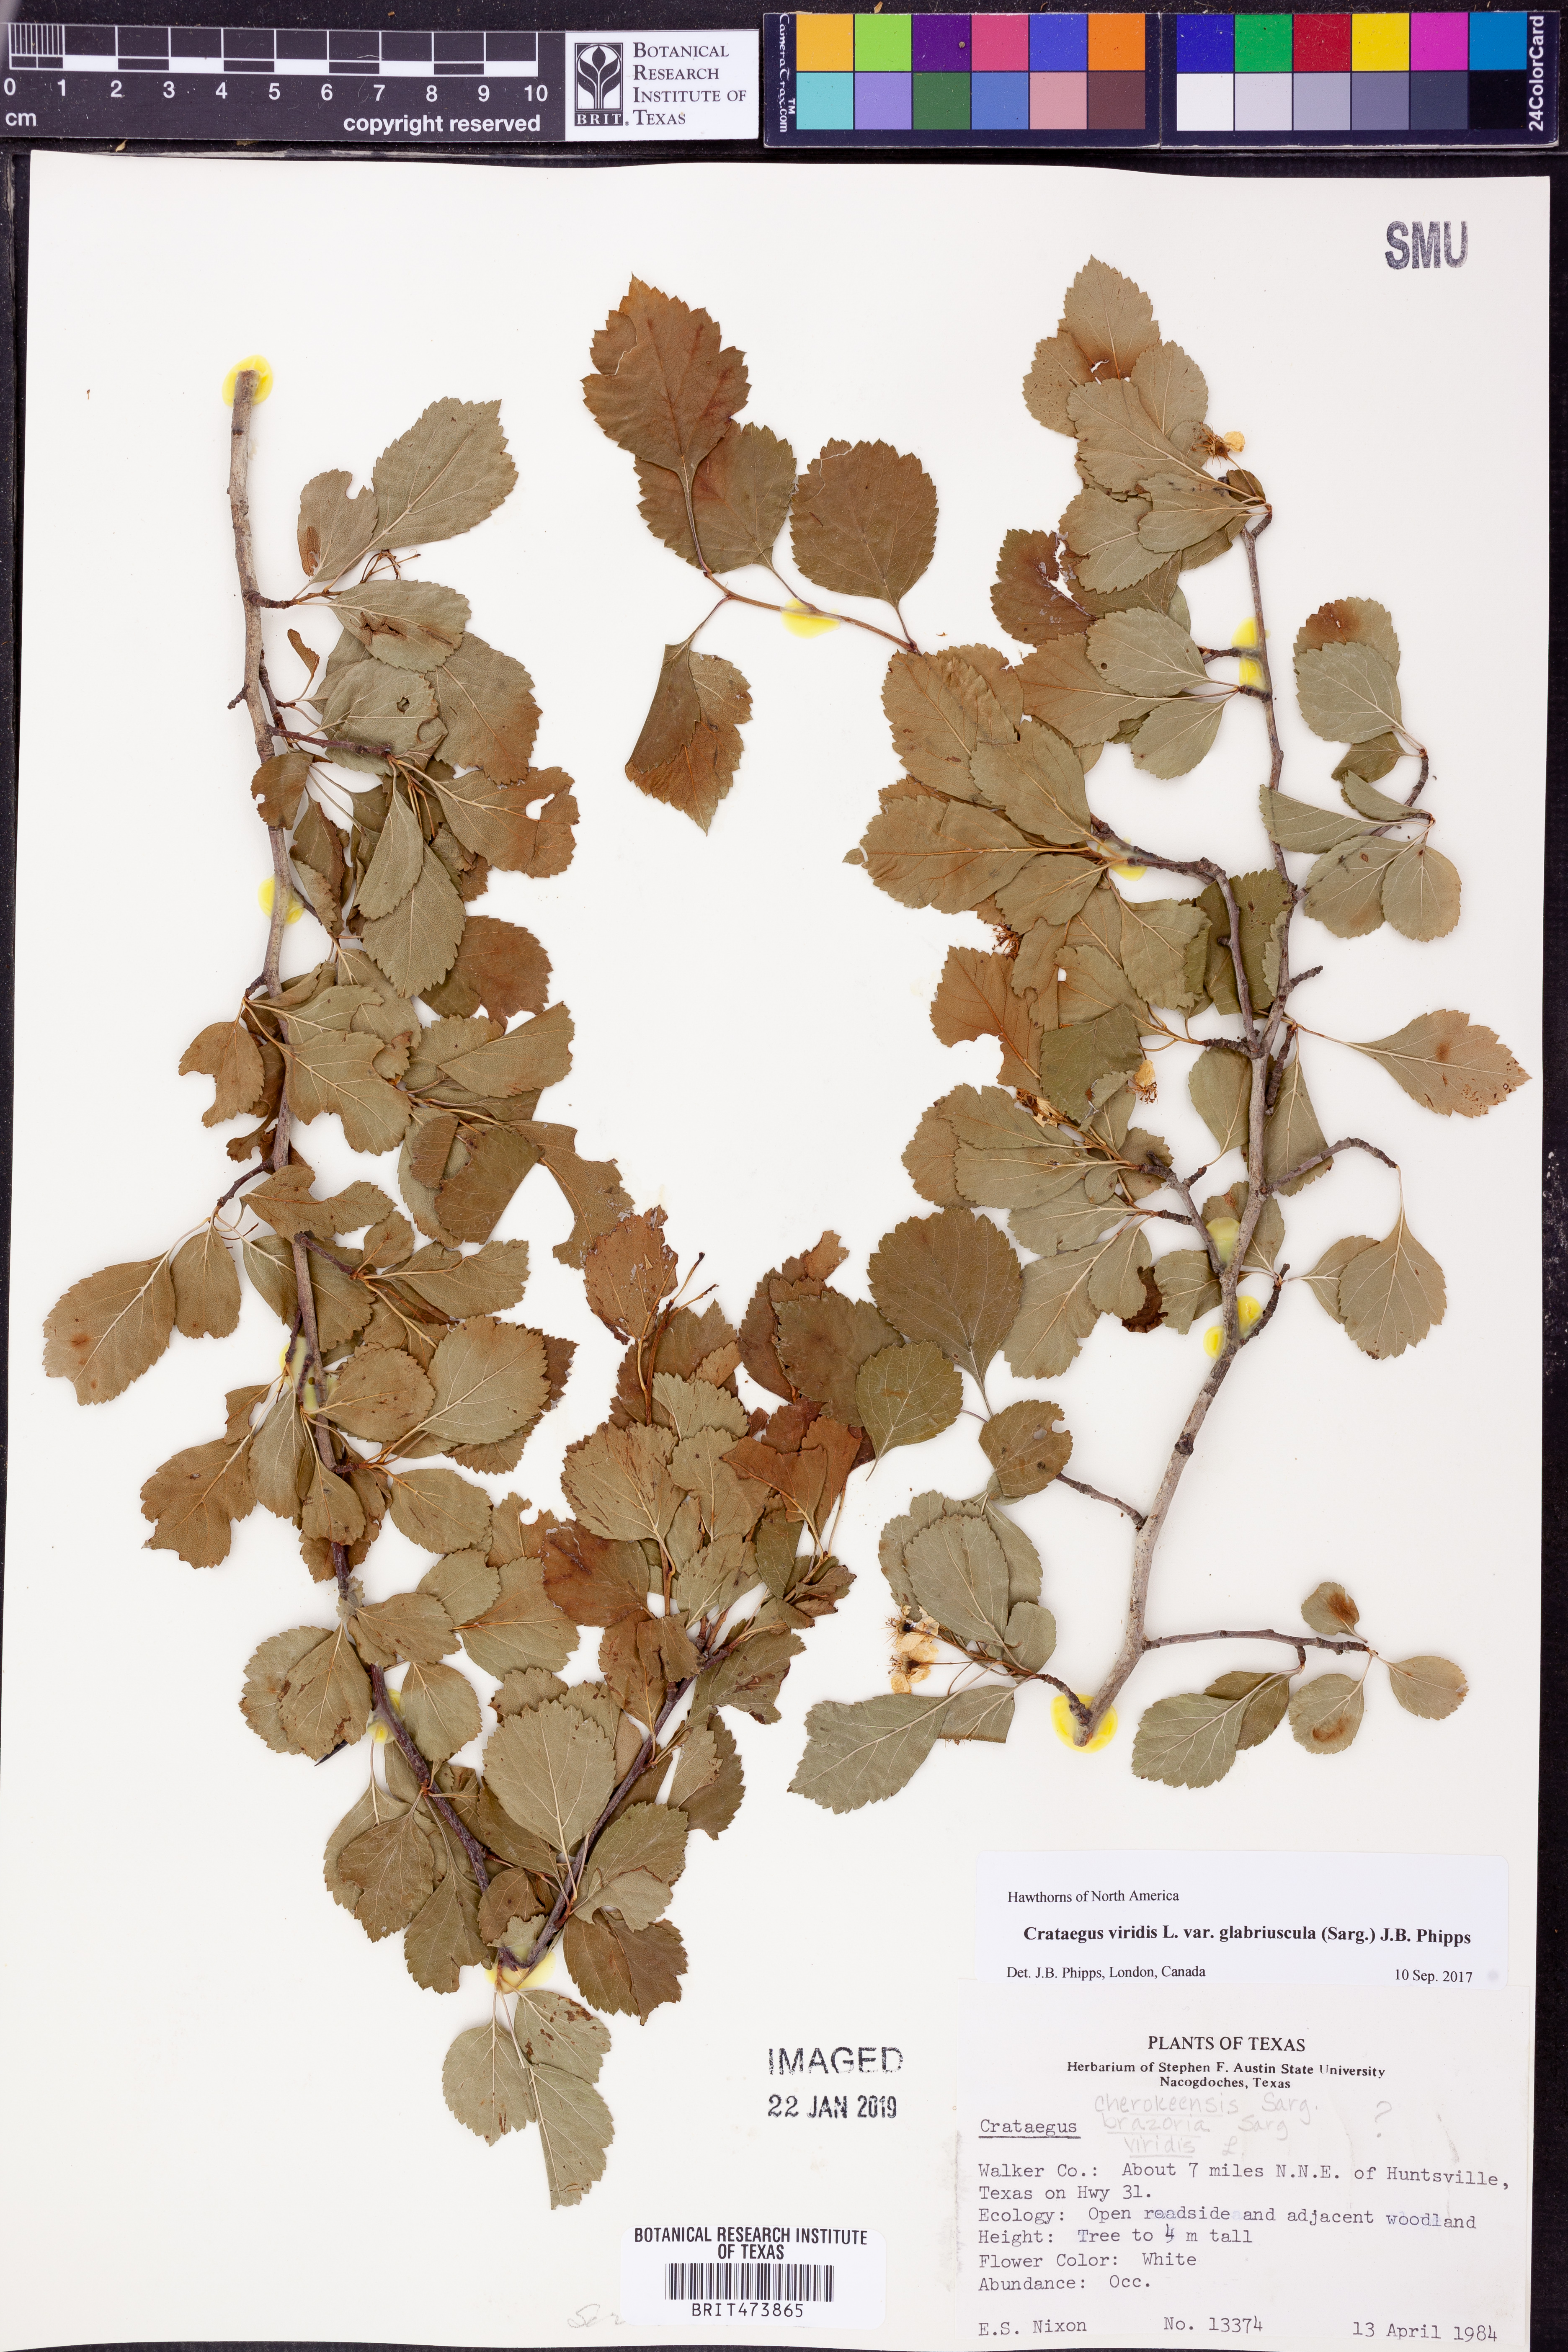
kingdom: Plantae
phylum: Tracheophyta
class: Magnoliopsida
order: Rosales
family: Rosaceae
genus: Crataegus
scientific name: Crataegus viridis
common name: Southernthorn
